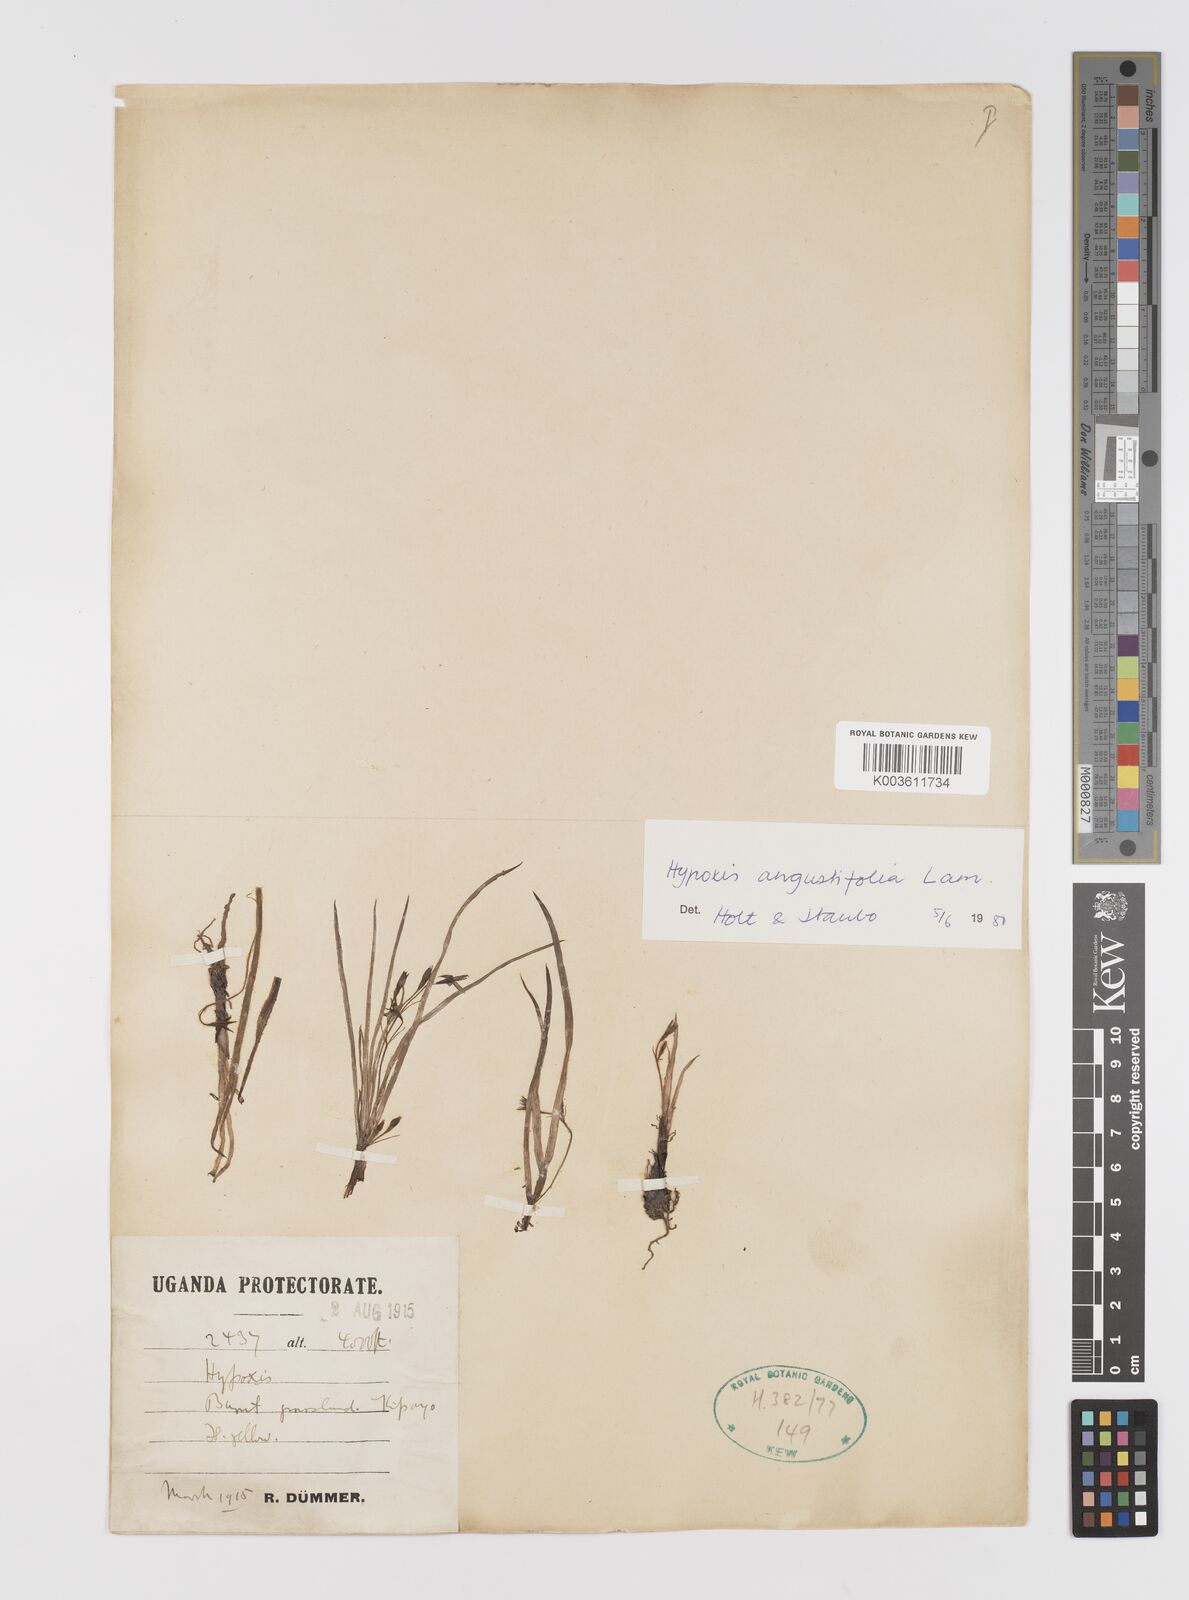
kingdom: Plantae
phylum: Tracheophyta
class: Liliopsida
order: Asparagales
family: Hypoxidaceae
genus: Hypoxis
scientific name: Hypoxis angustifolia
